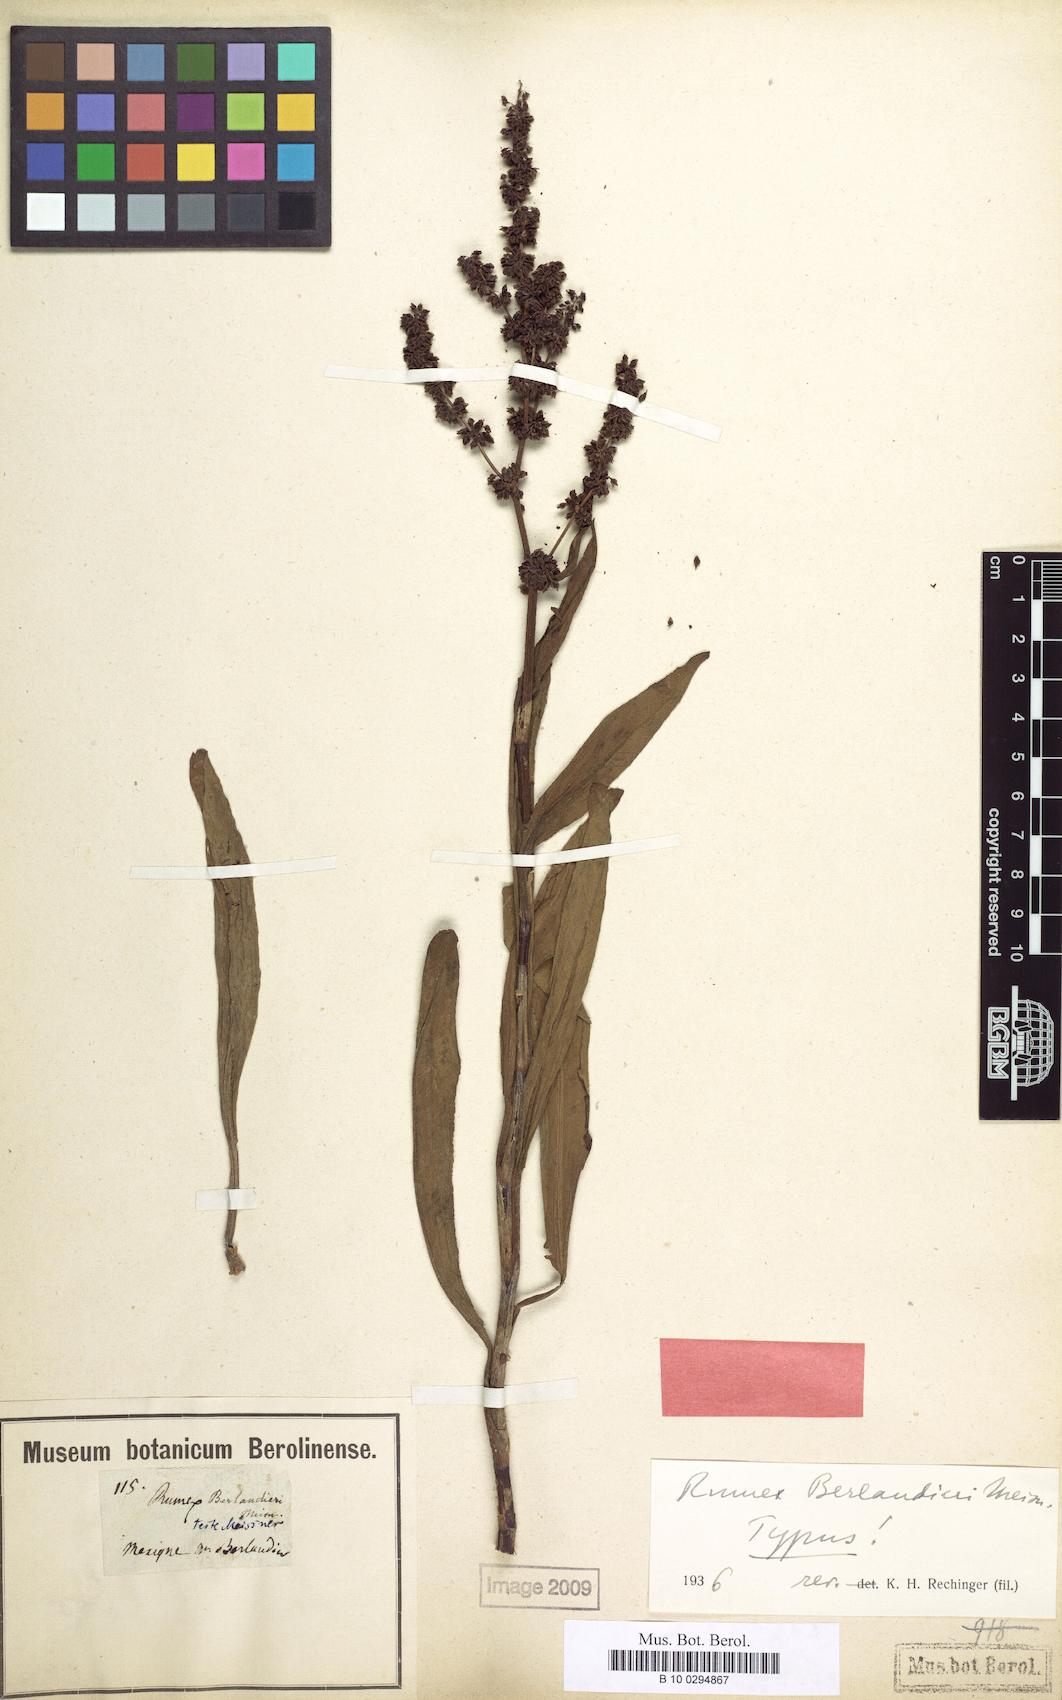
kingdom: Plantae
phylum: Tracheophyta
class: Magnoliopsida
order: Caryophyllales
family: Polygonaceae
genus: Rumex
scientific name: Rumex chrysocarpus
